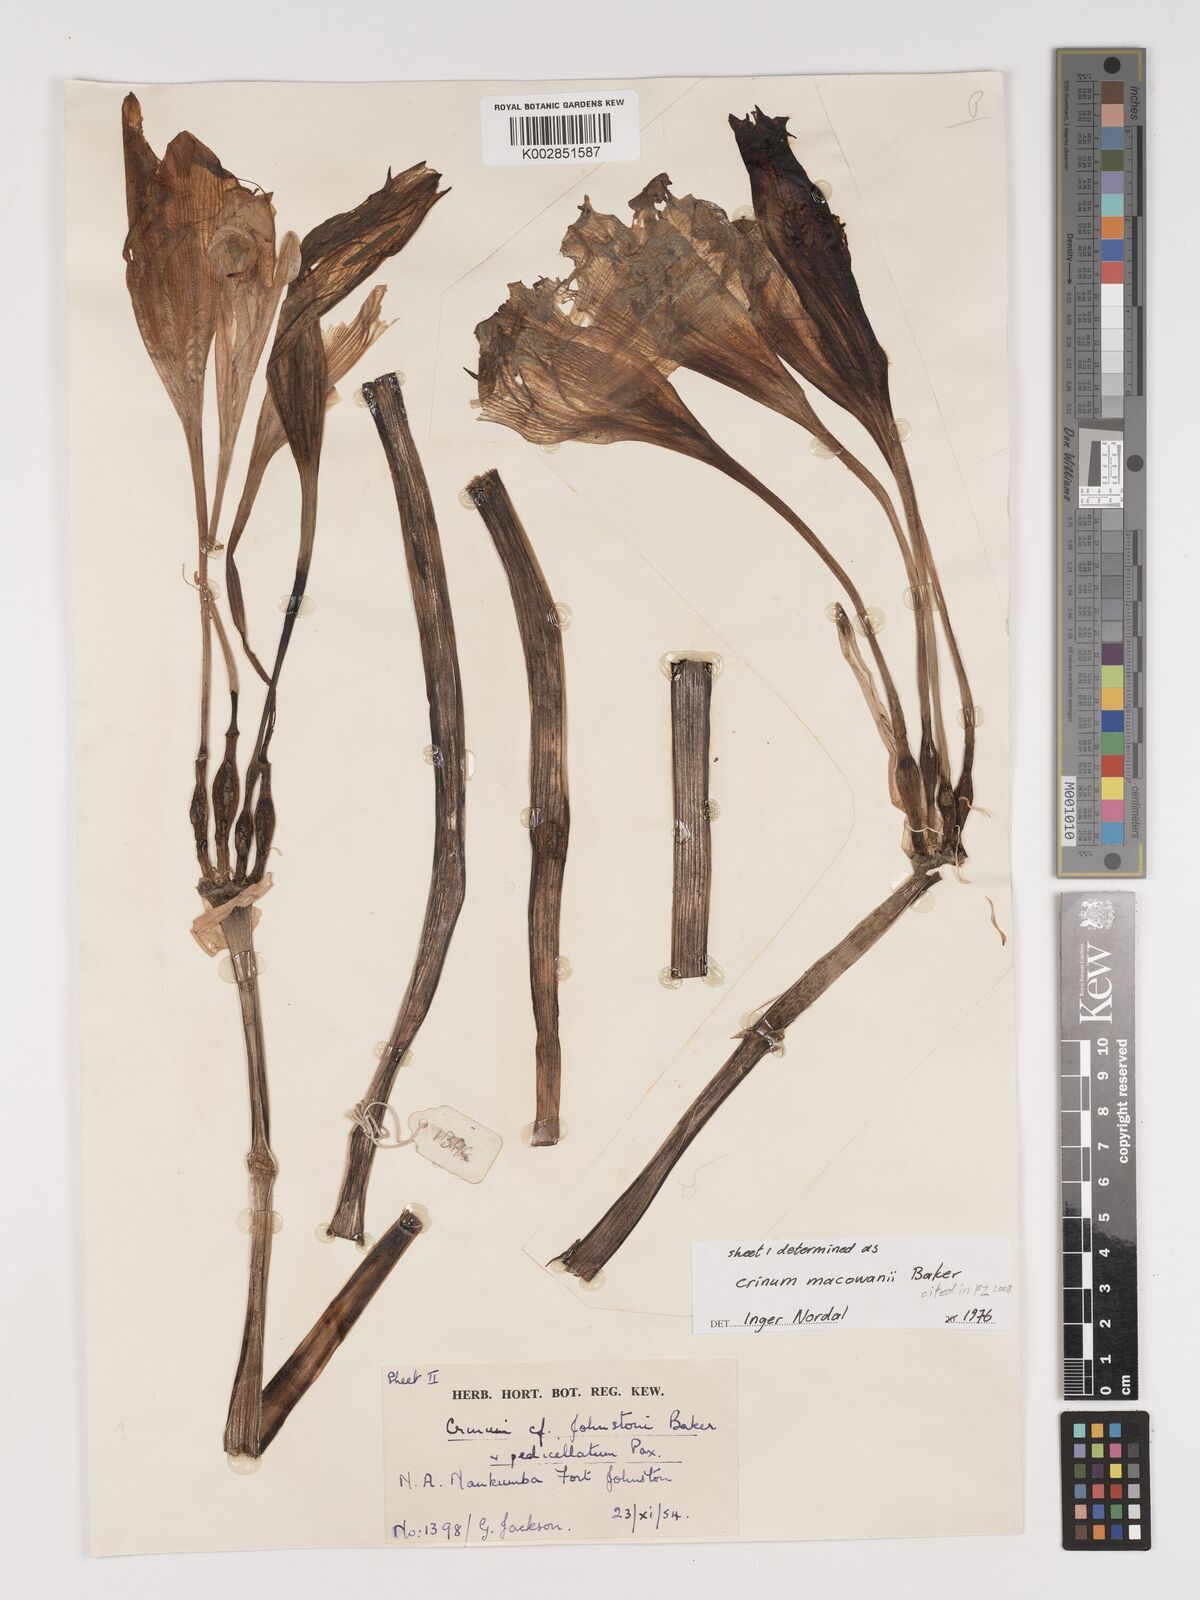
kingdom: Plantae
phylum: Tracheophyta
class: Liliopsida
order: Asparagales
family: Amaryllidaceae
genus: Crinum
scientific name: Crinum macowanii
